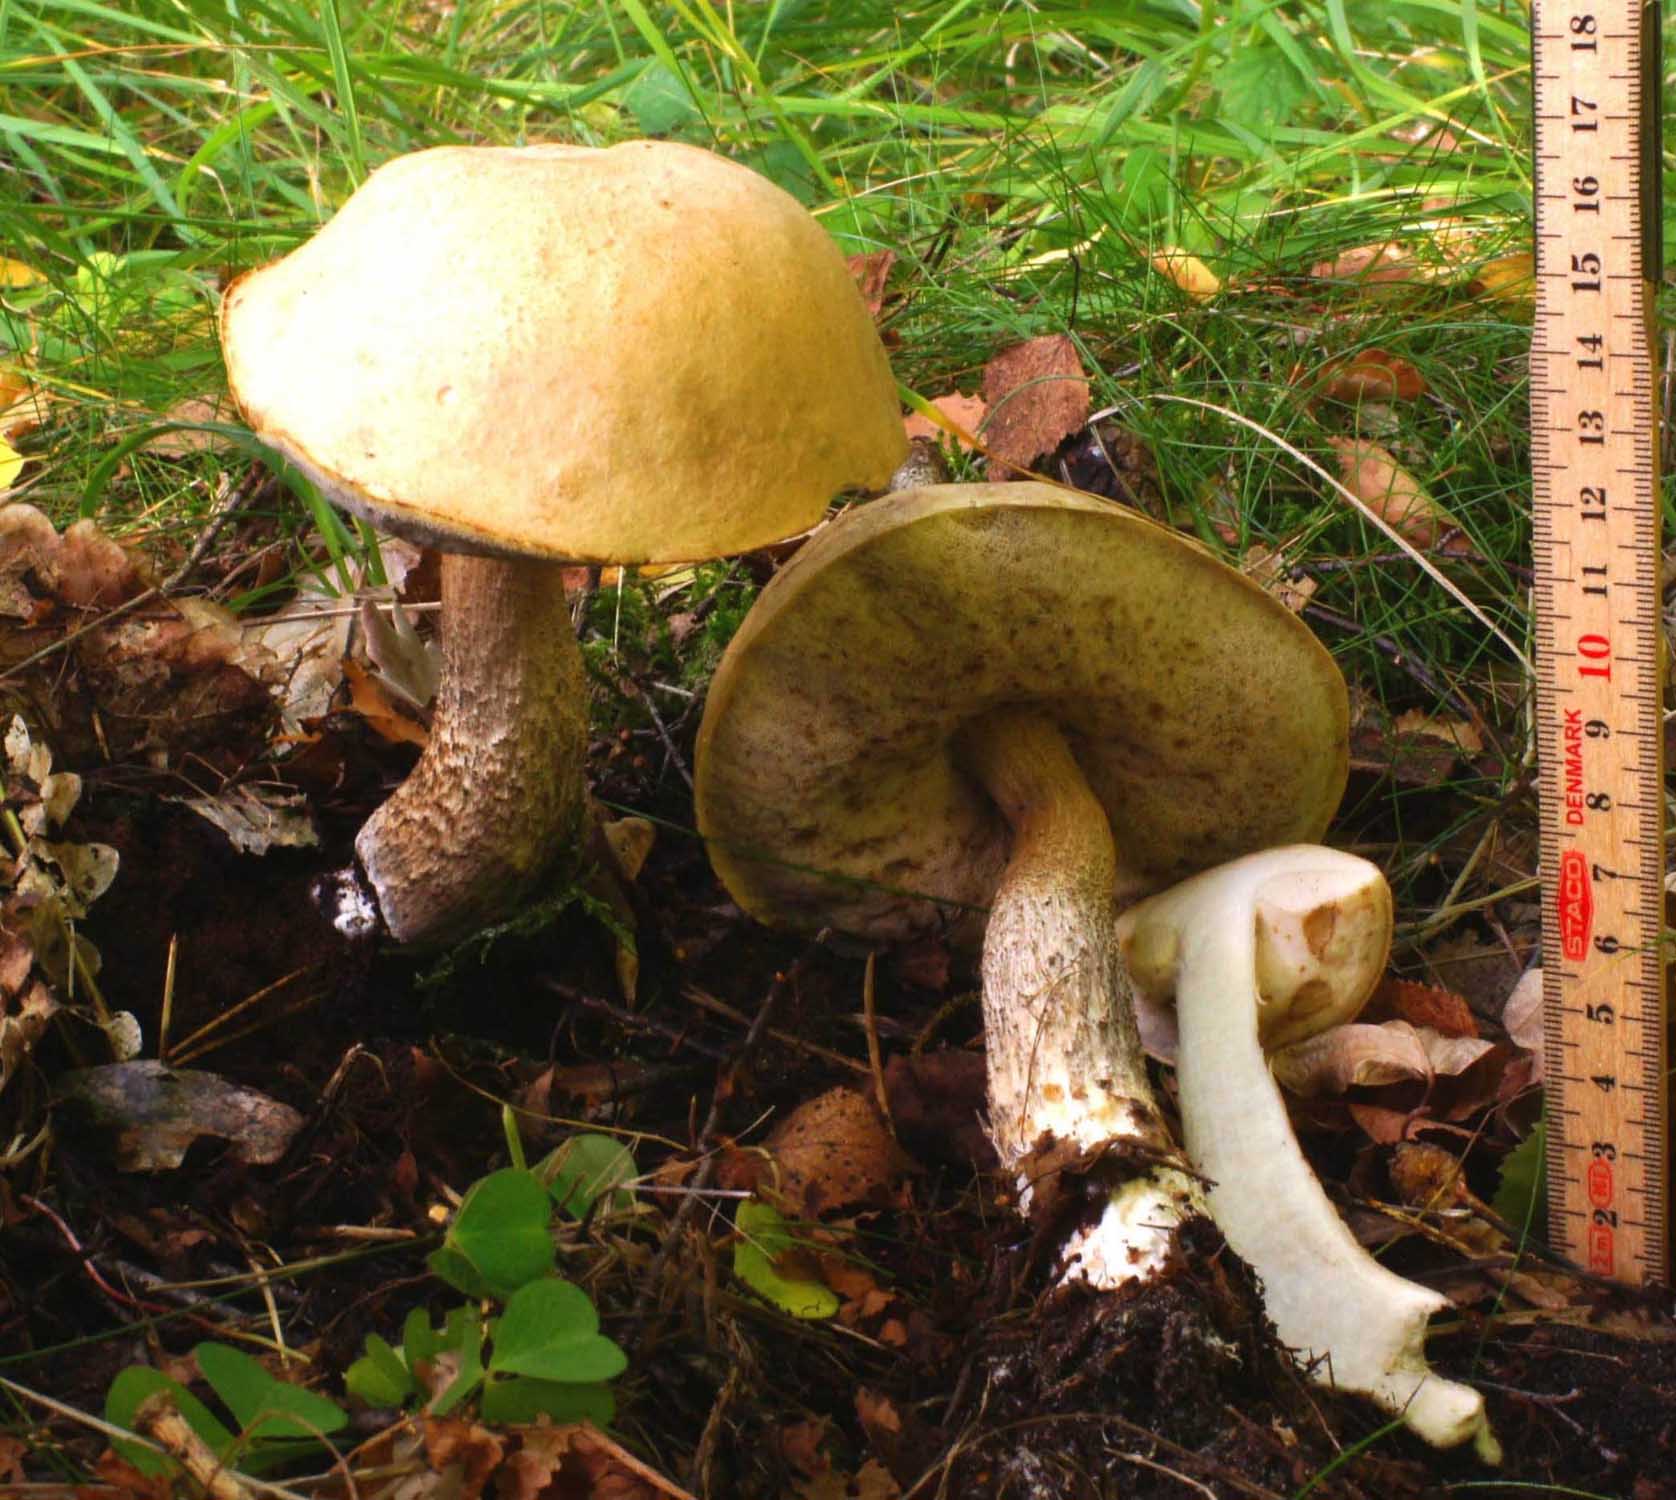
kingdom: Fungi
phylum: Basidiomycota
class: Agaricomycetes
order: Boletales
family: Boletaceae
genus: Leccinum
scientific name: Leccinum
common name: skælrørhat
